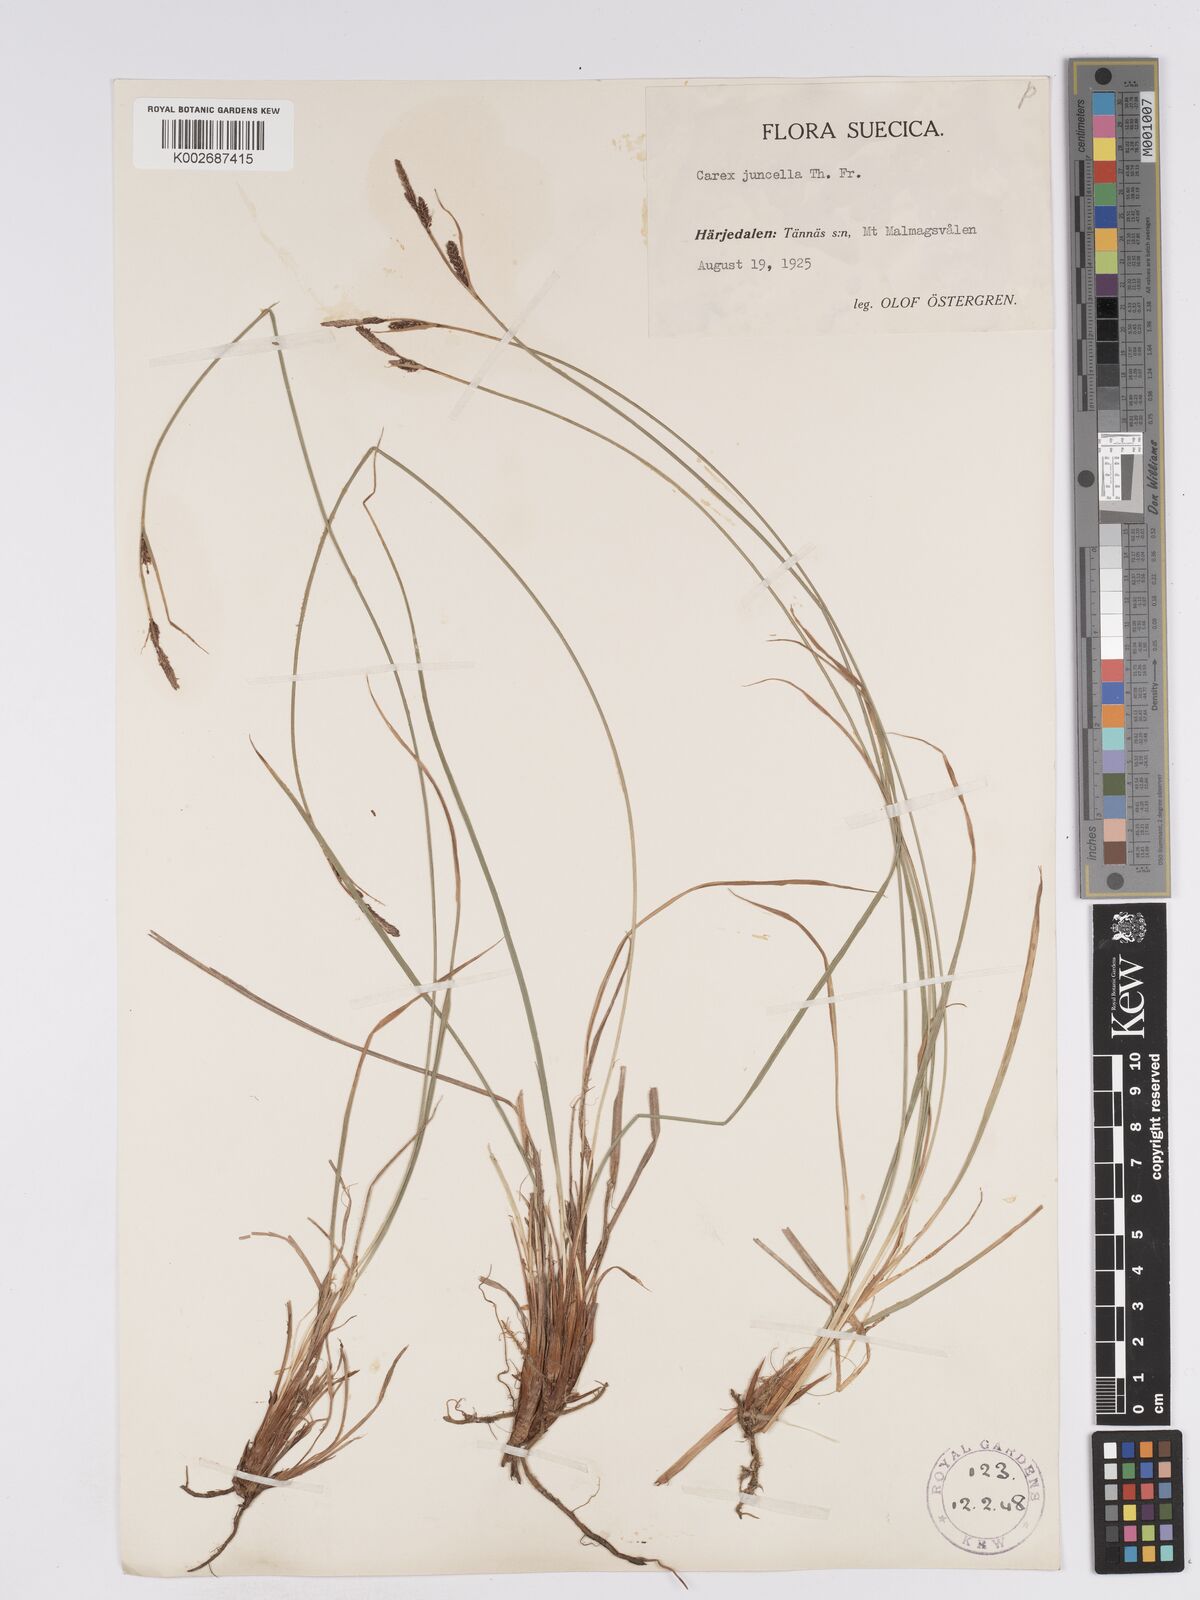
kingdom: Plantae
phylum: Tracheophyta
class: Liliopsida
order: Poales
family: Cyperaceae
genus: Carex
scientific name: Carex nigra
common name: Common sedge
